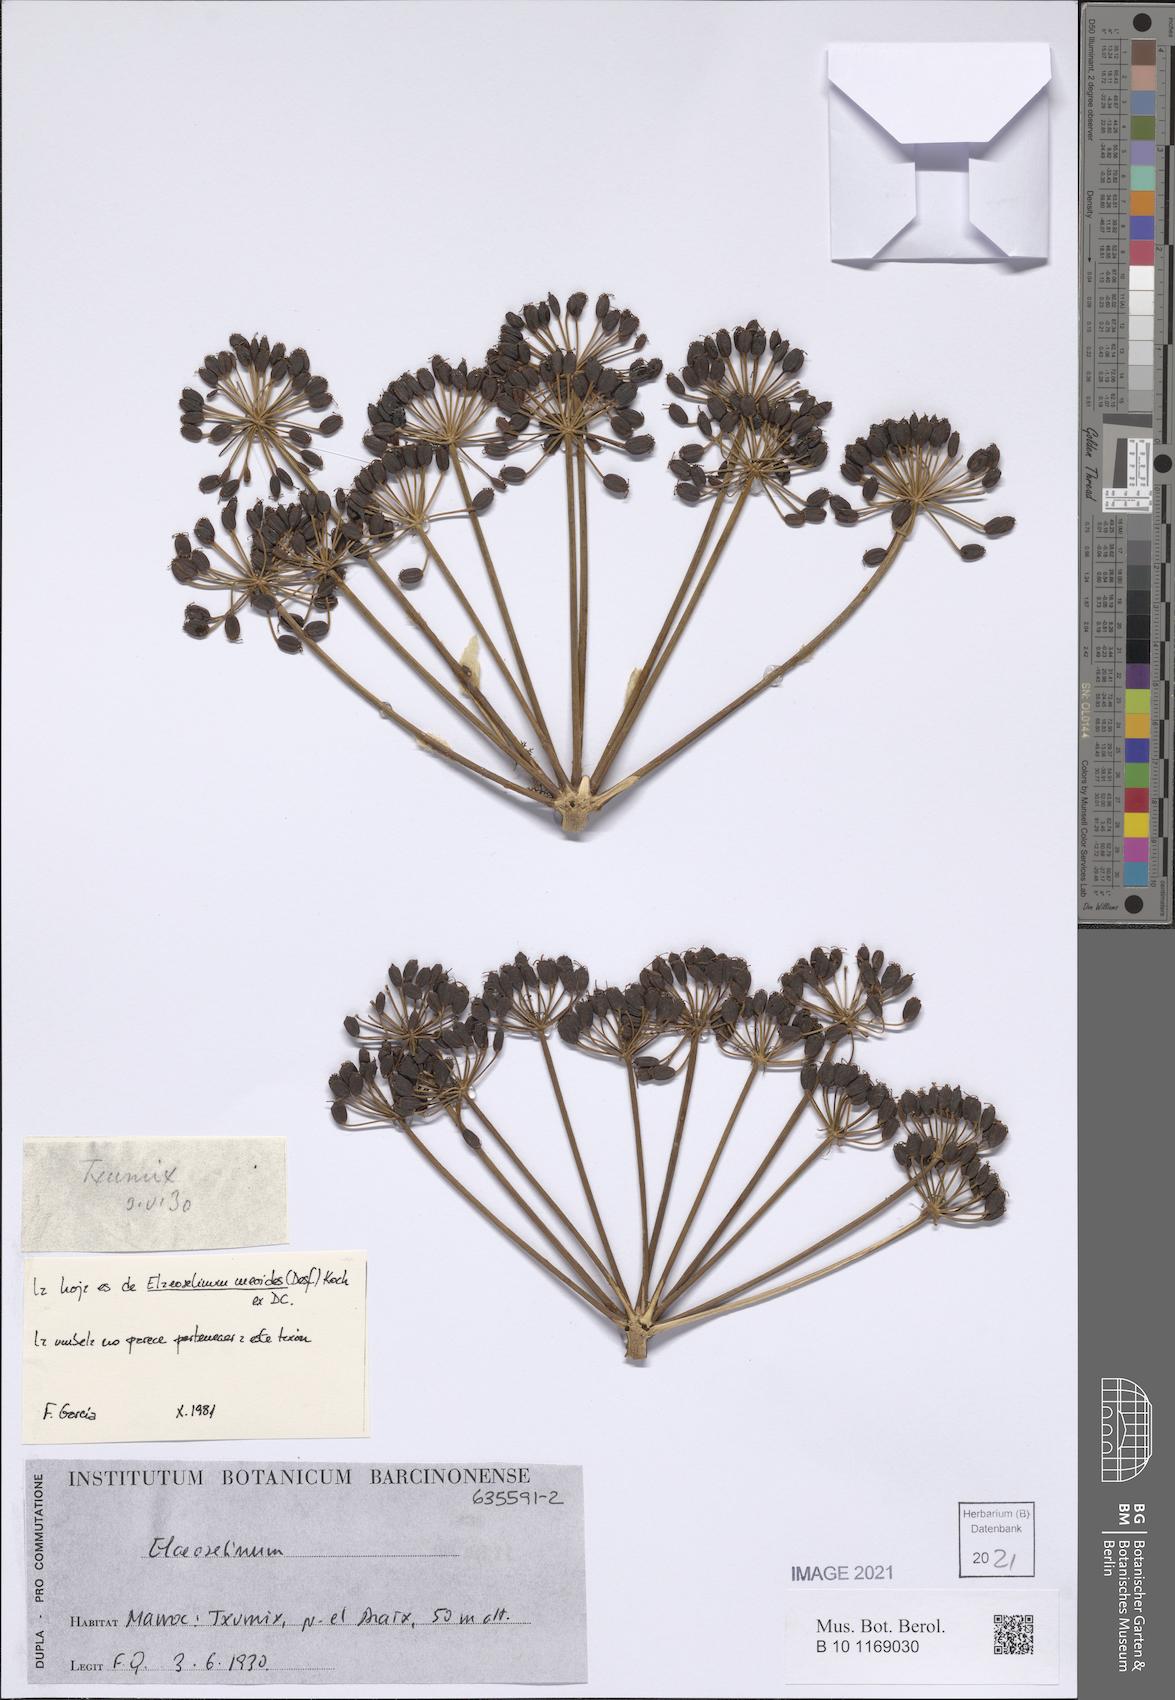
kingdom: Plantae
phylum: Tracheophyta
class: Magnoliopsida
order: Apiales
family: Apiaceae
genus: Thapsia
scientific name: Thapsia
